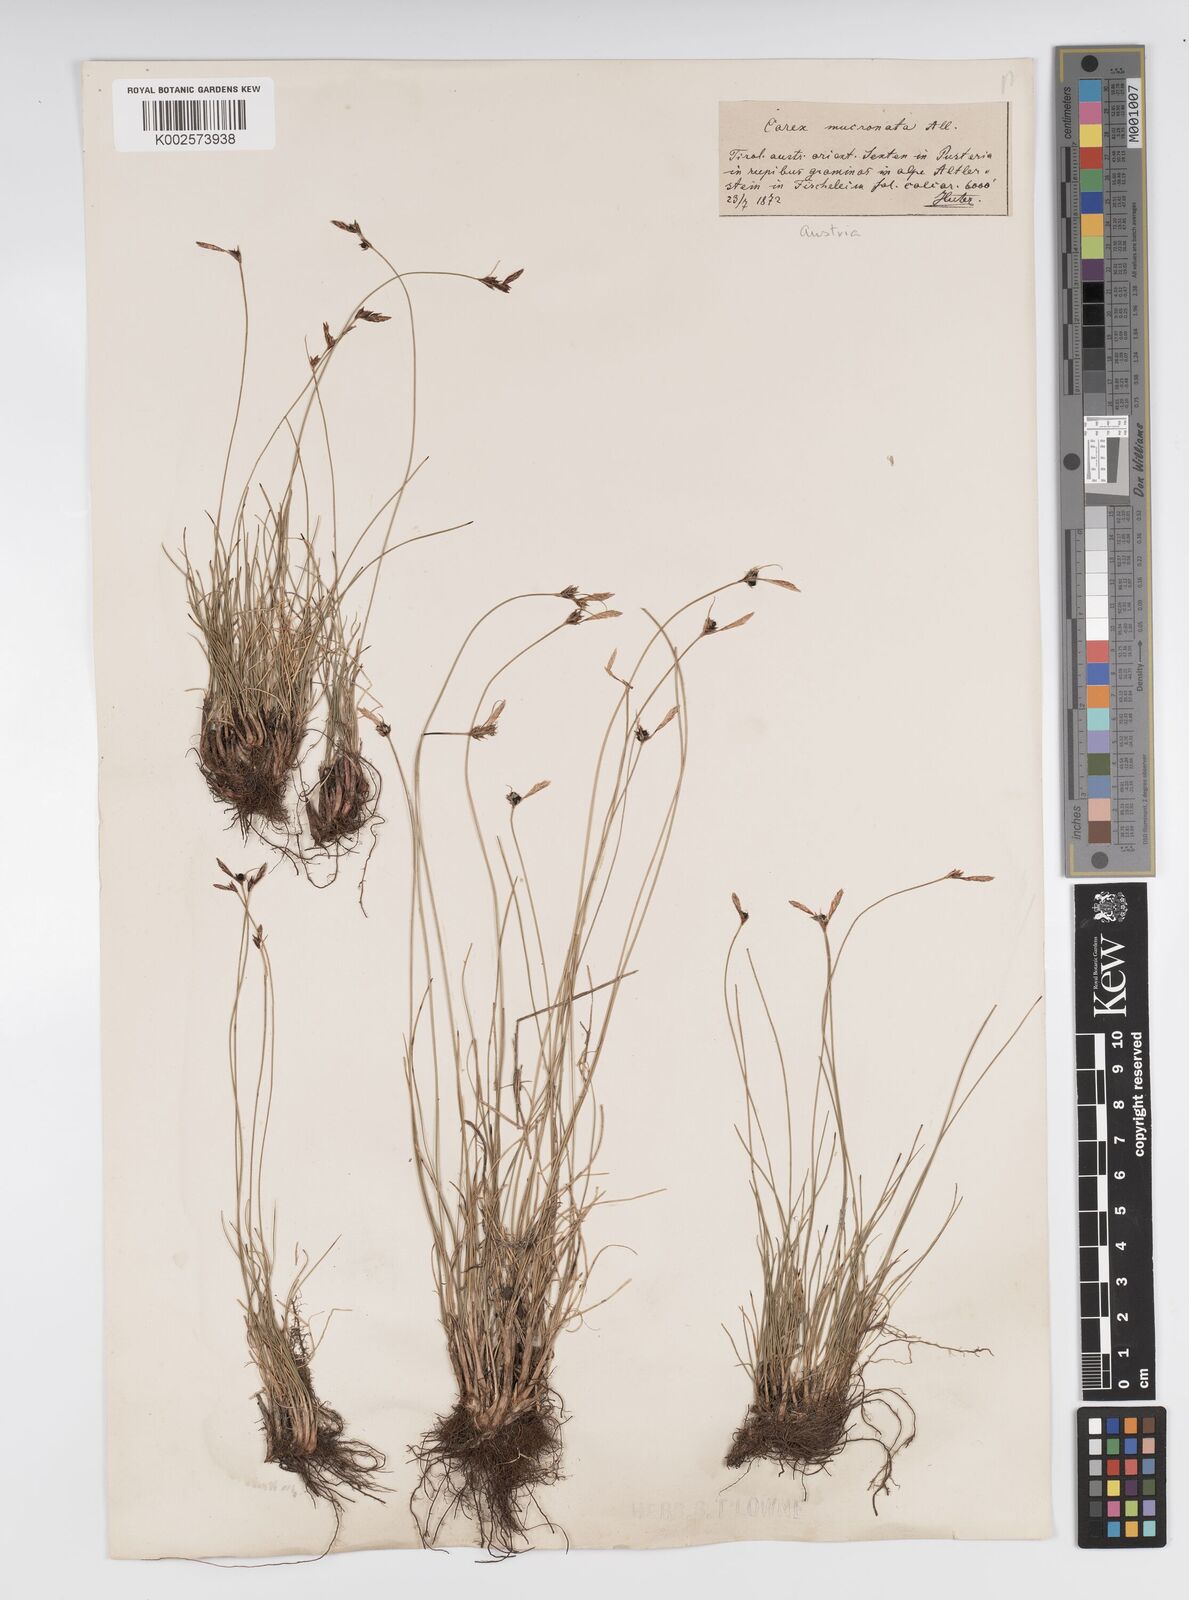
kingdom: Plantae
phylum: Tracheophyta
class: Liliopsida
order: Poales
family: Cyperaceae
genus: Carex
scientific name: Carex mucronata
